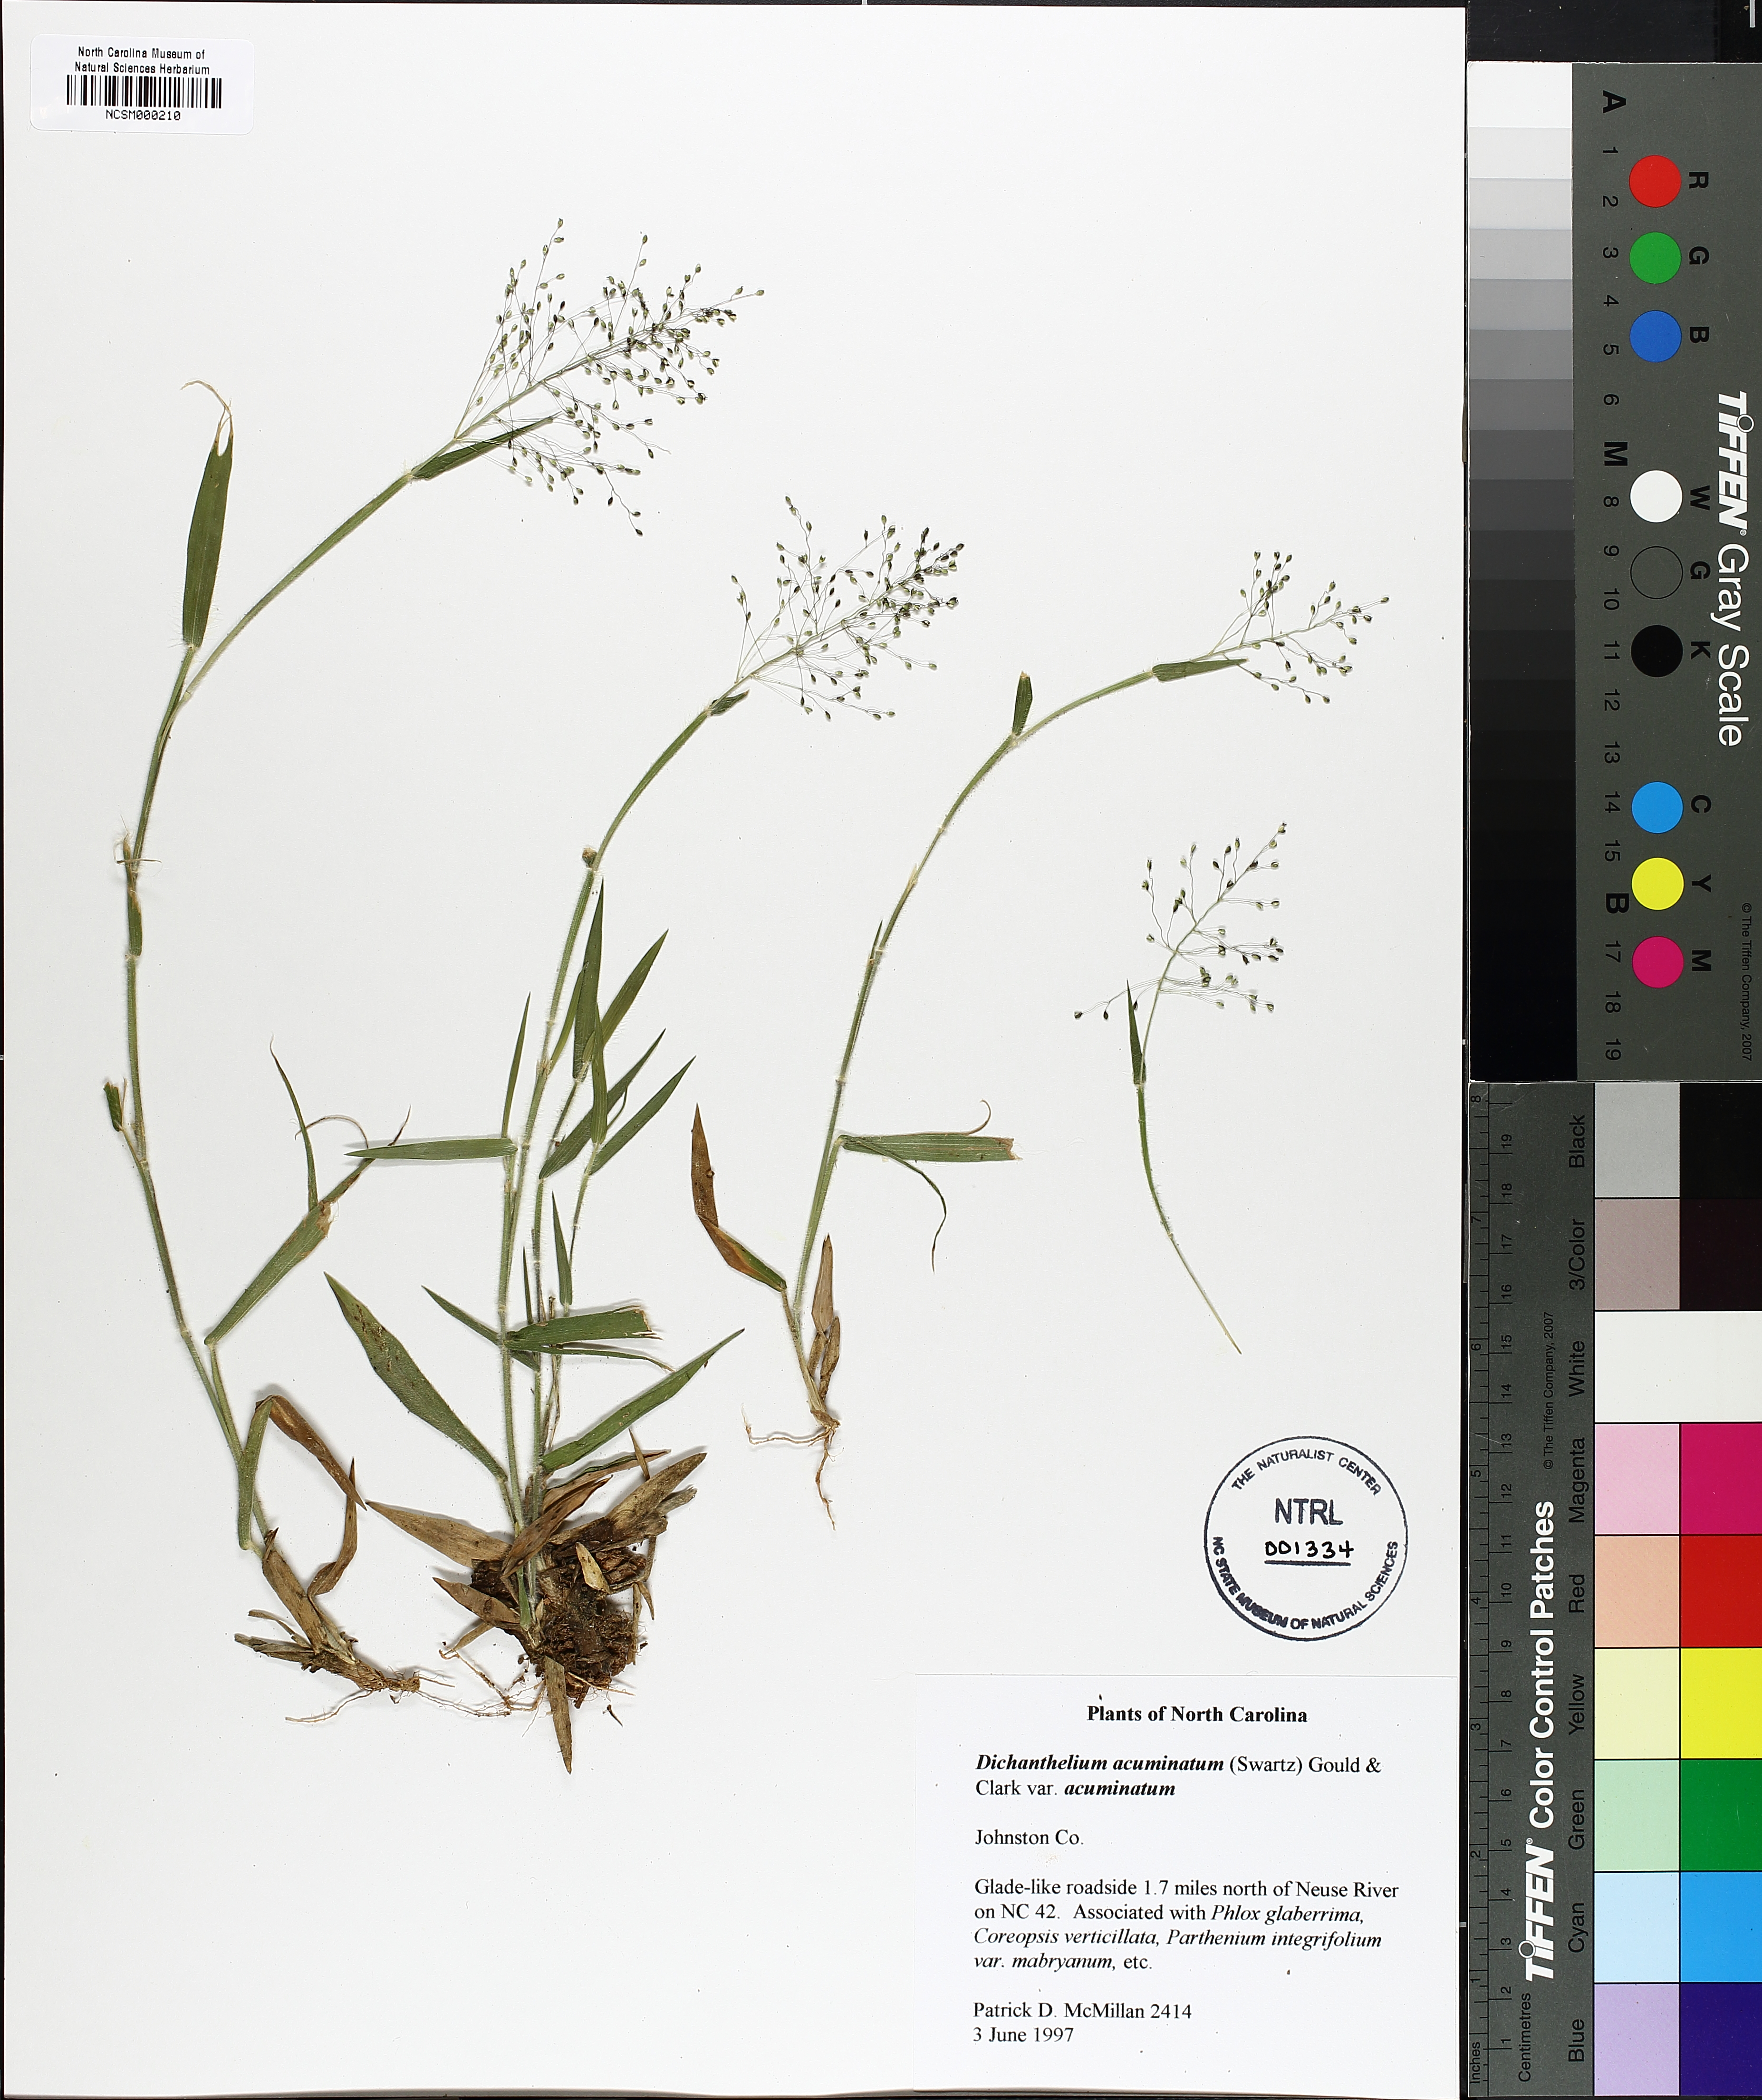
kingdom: Plantae
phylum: Tracheophyta
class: Liliopsida
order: Poales
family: Poaceae
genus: Dichanthelium
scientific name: Dichanthelium acuminatum
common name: Hairy panic grass
